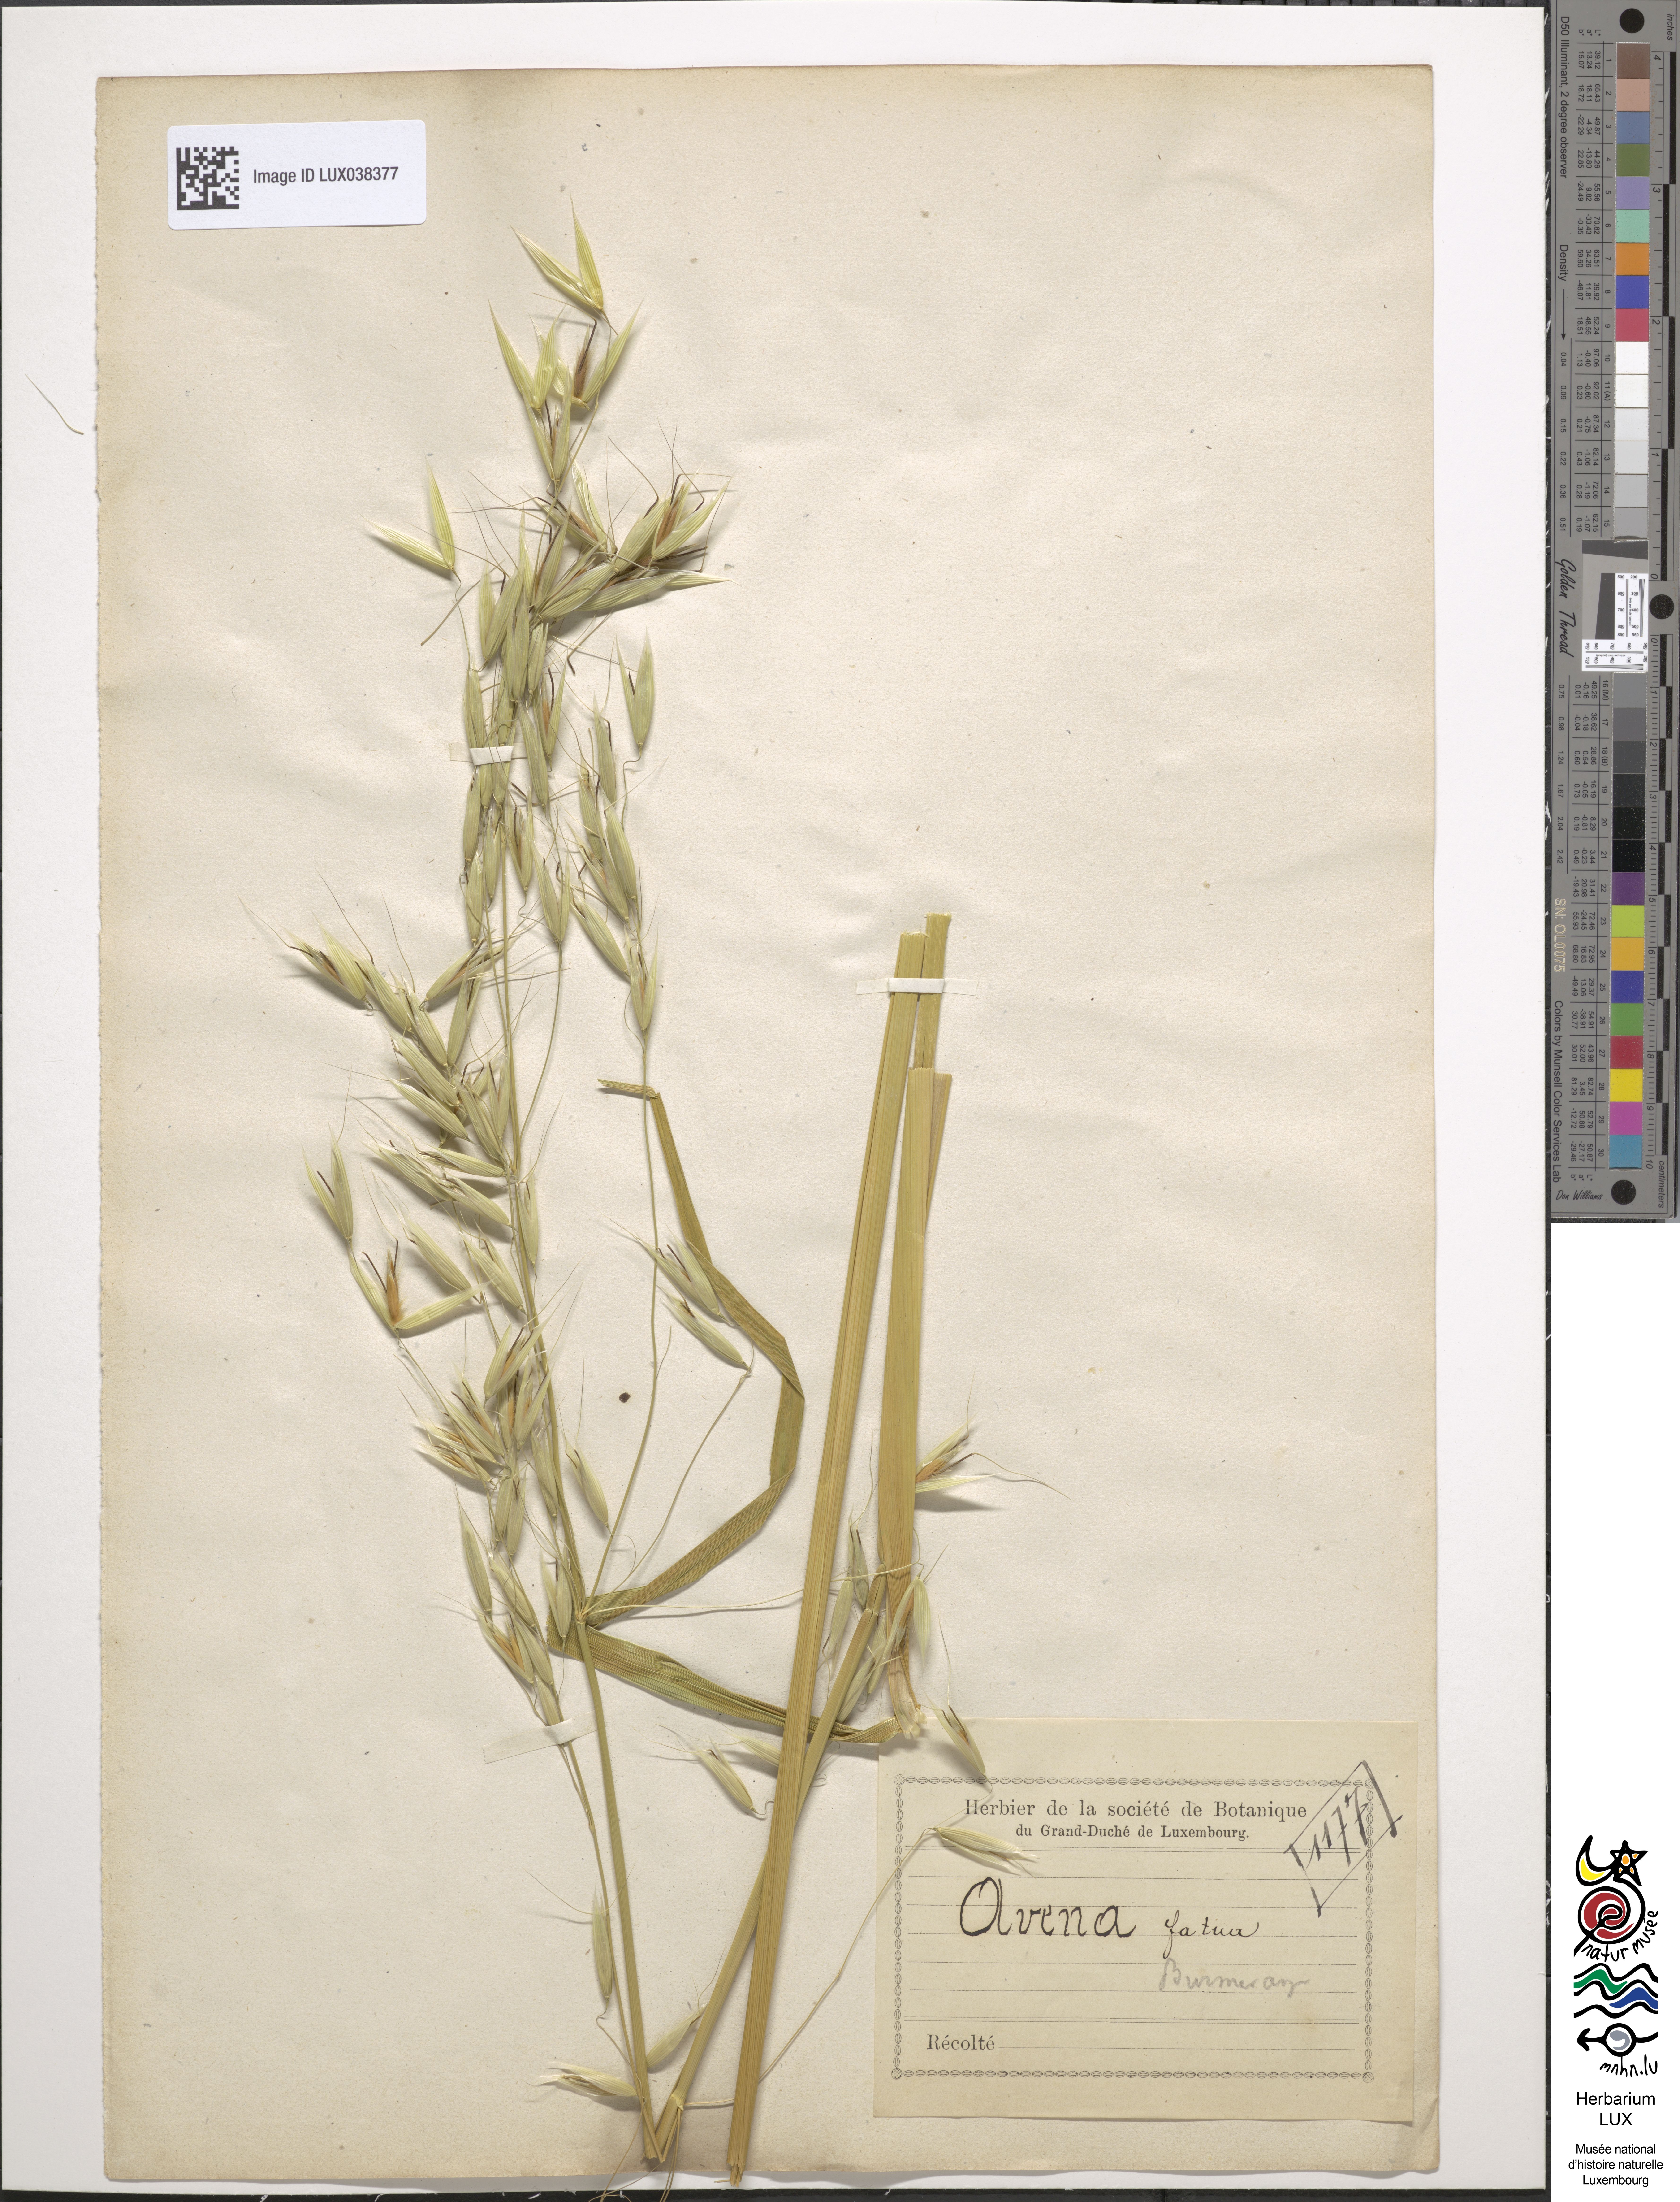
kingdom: Plantae
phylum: Tracheophyta
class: Liliopsida
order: Poales
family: Poaceae
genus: Avena
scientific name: Avena fatua
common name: Wild oat
